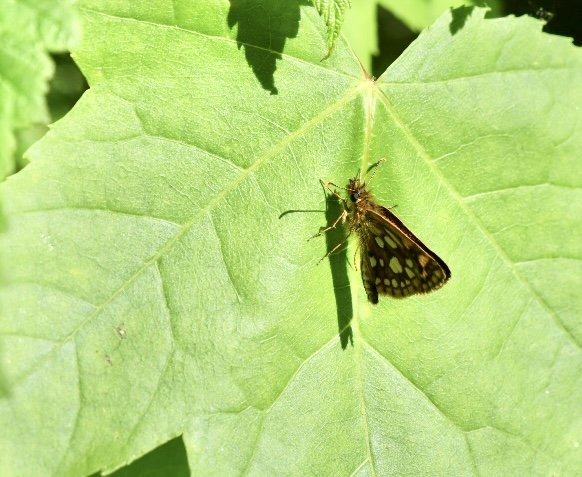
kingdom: Animalia
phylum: Arthropoda
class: Insecta
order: Lepidoptera
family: Hesperiidae
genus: Carterocephalus
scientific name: Carterocephalus palaemon
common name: Chequered Skipper
